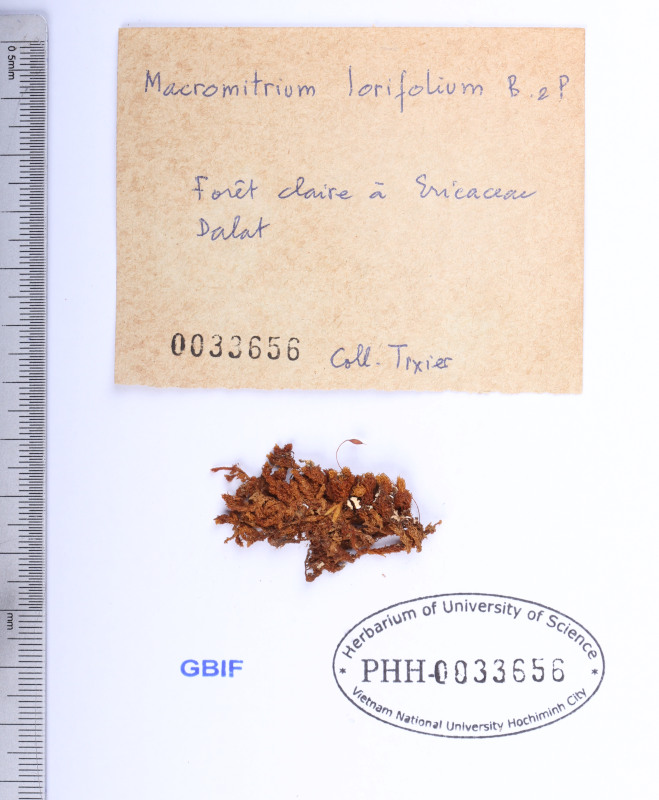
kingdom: Plantae
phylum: Bryophyta
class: Bryopsida
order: Orthotrichales
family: Orthotrichaceae
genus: Macromitrium
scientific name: Macromitrium lorifolium
